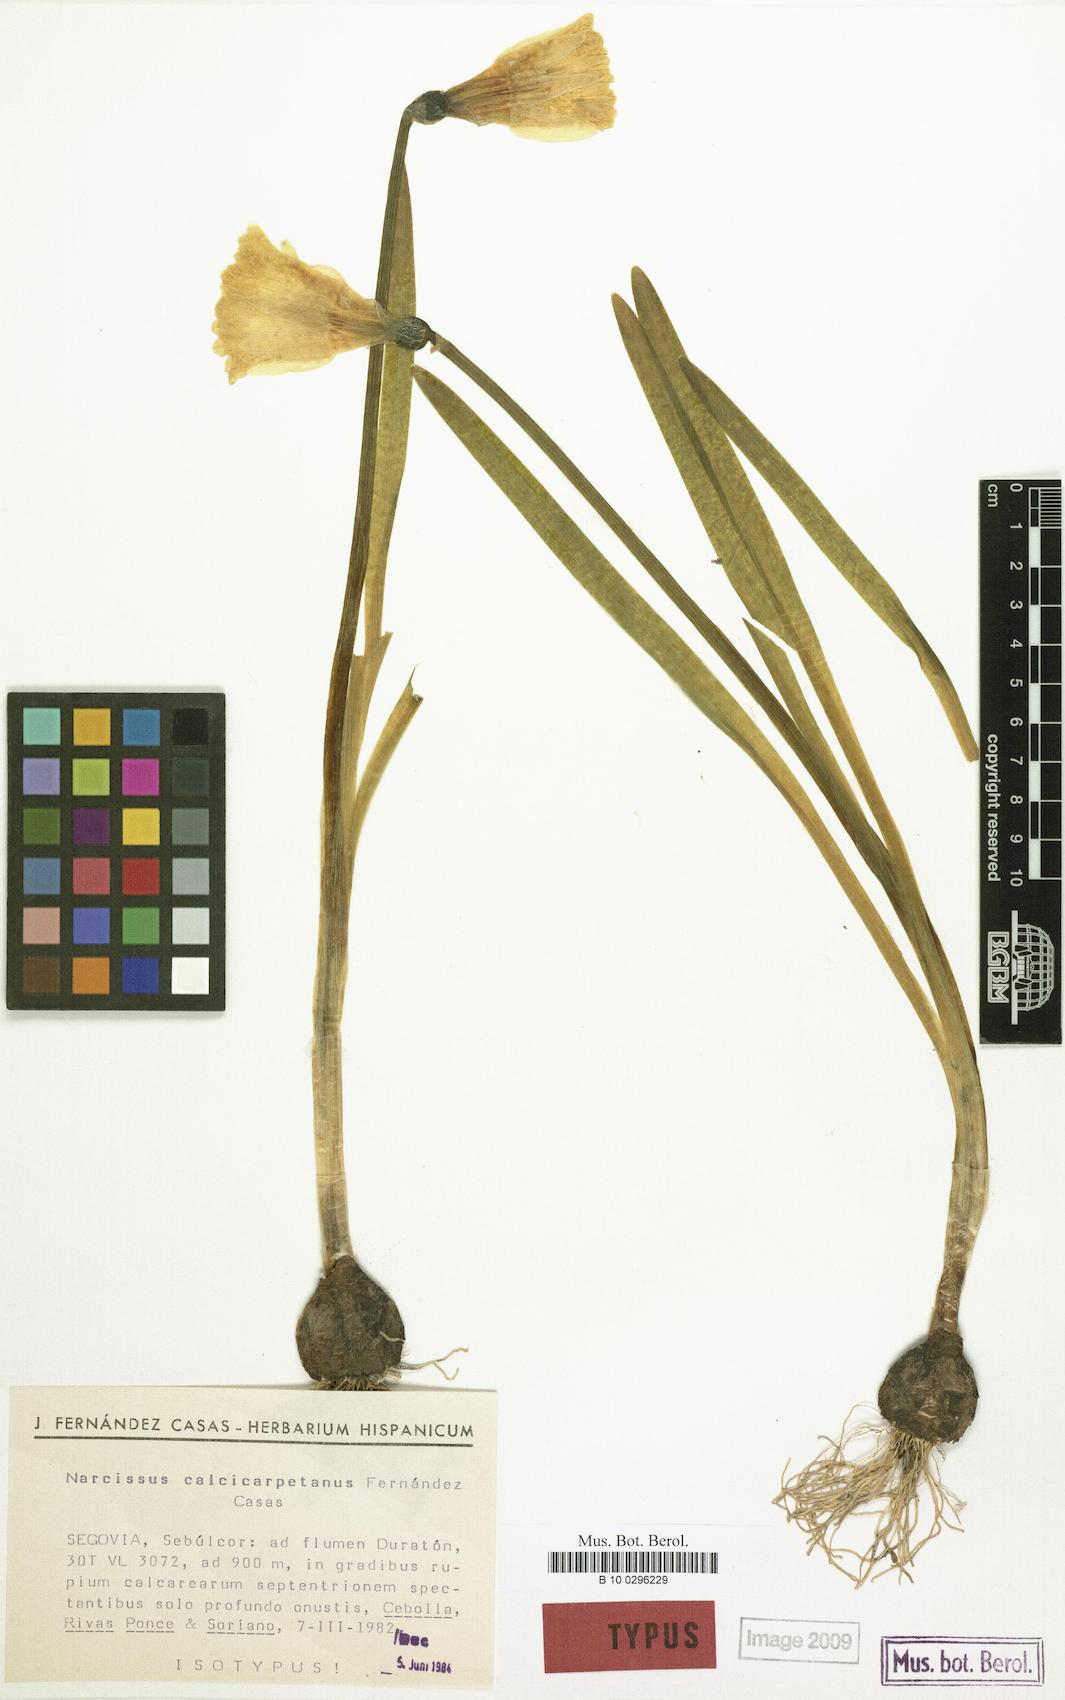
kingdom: Plantae
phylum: Tracheophyta
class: Liliopsida
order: Asparagales
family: Amaryllidaceae
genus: Narcissus
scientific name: Narcissus confusus
